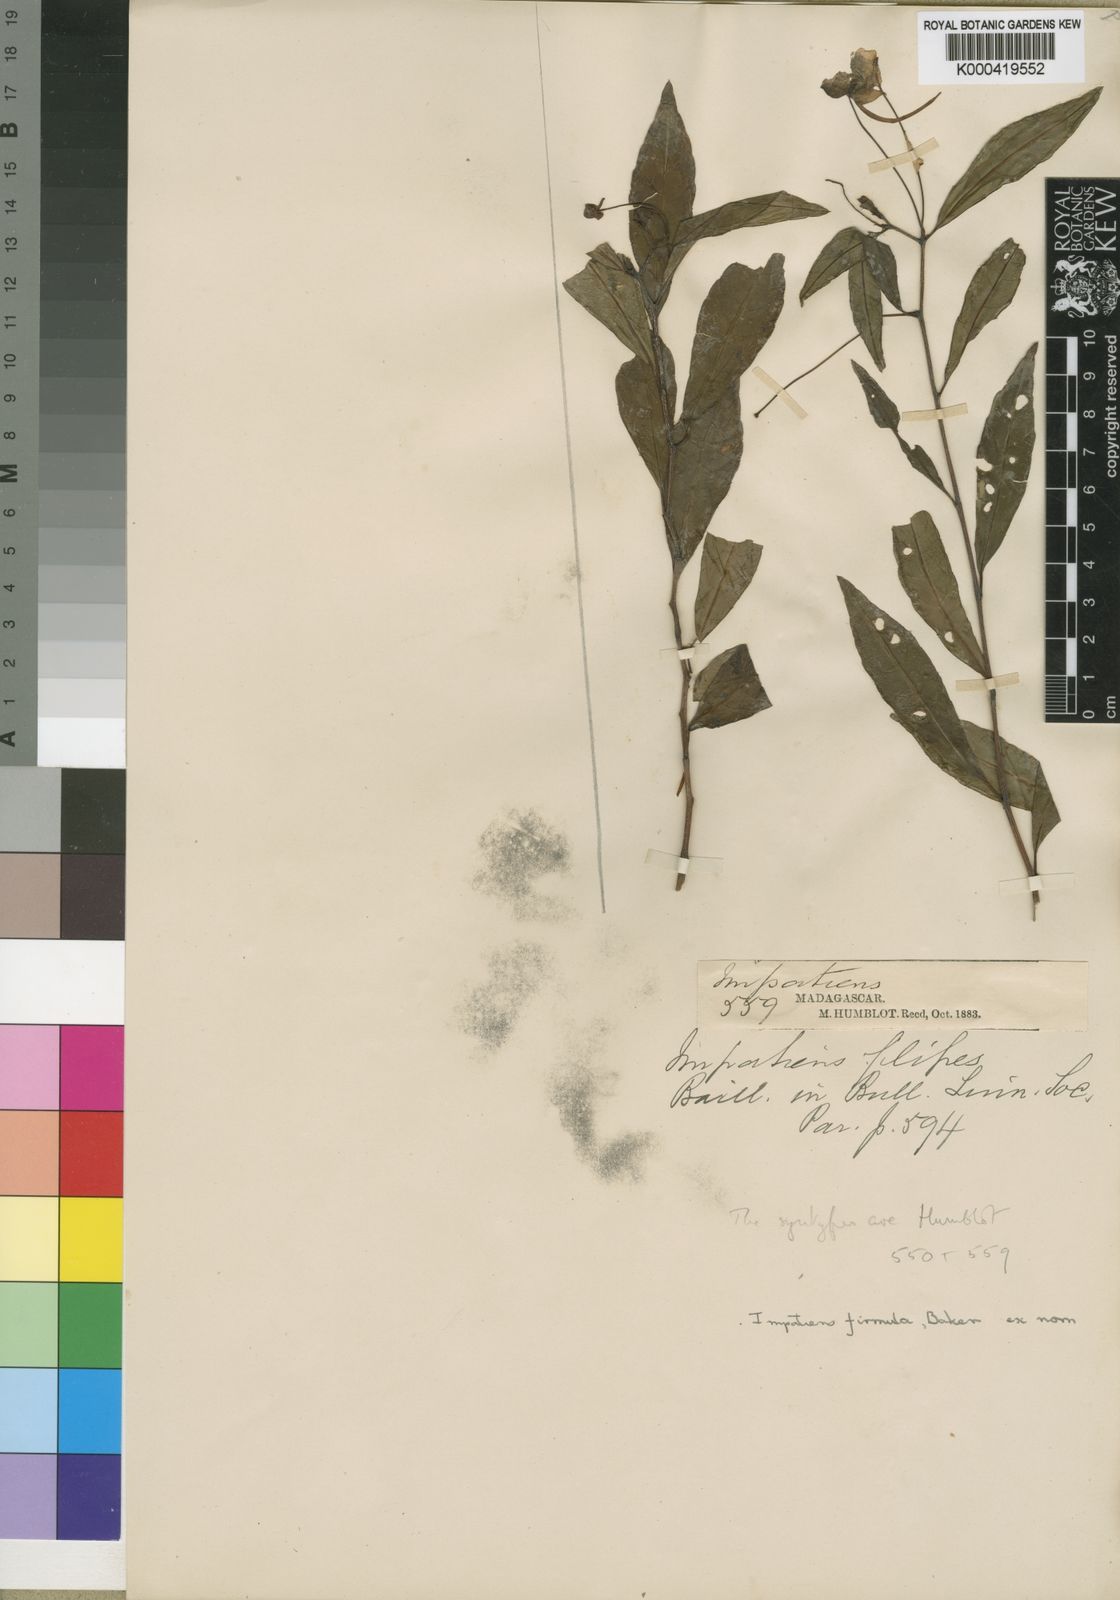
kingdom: Plantae
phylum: Tracheophyta
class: Magnoliopsida
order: Ericales
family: Balsaminaceae
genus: Impatiens
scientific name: Impatiens firmula
